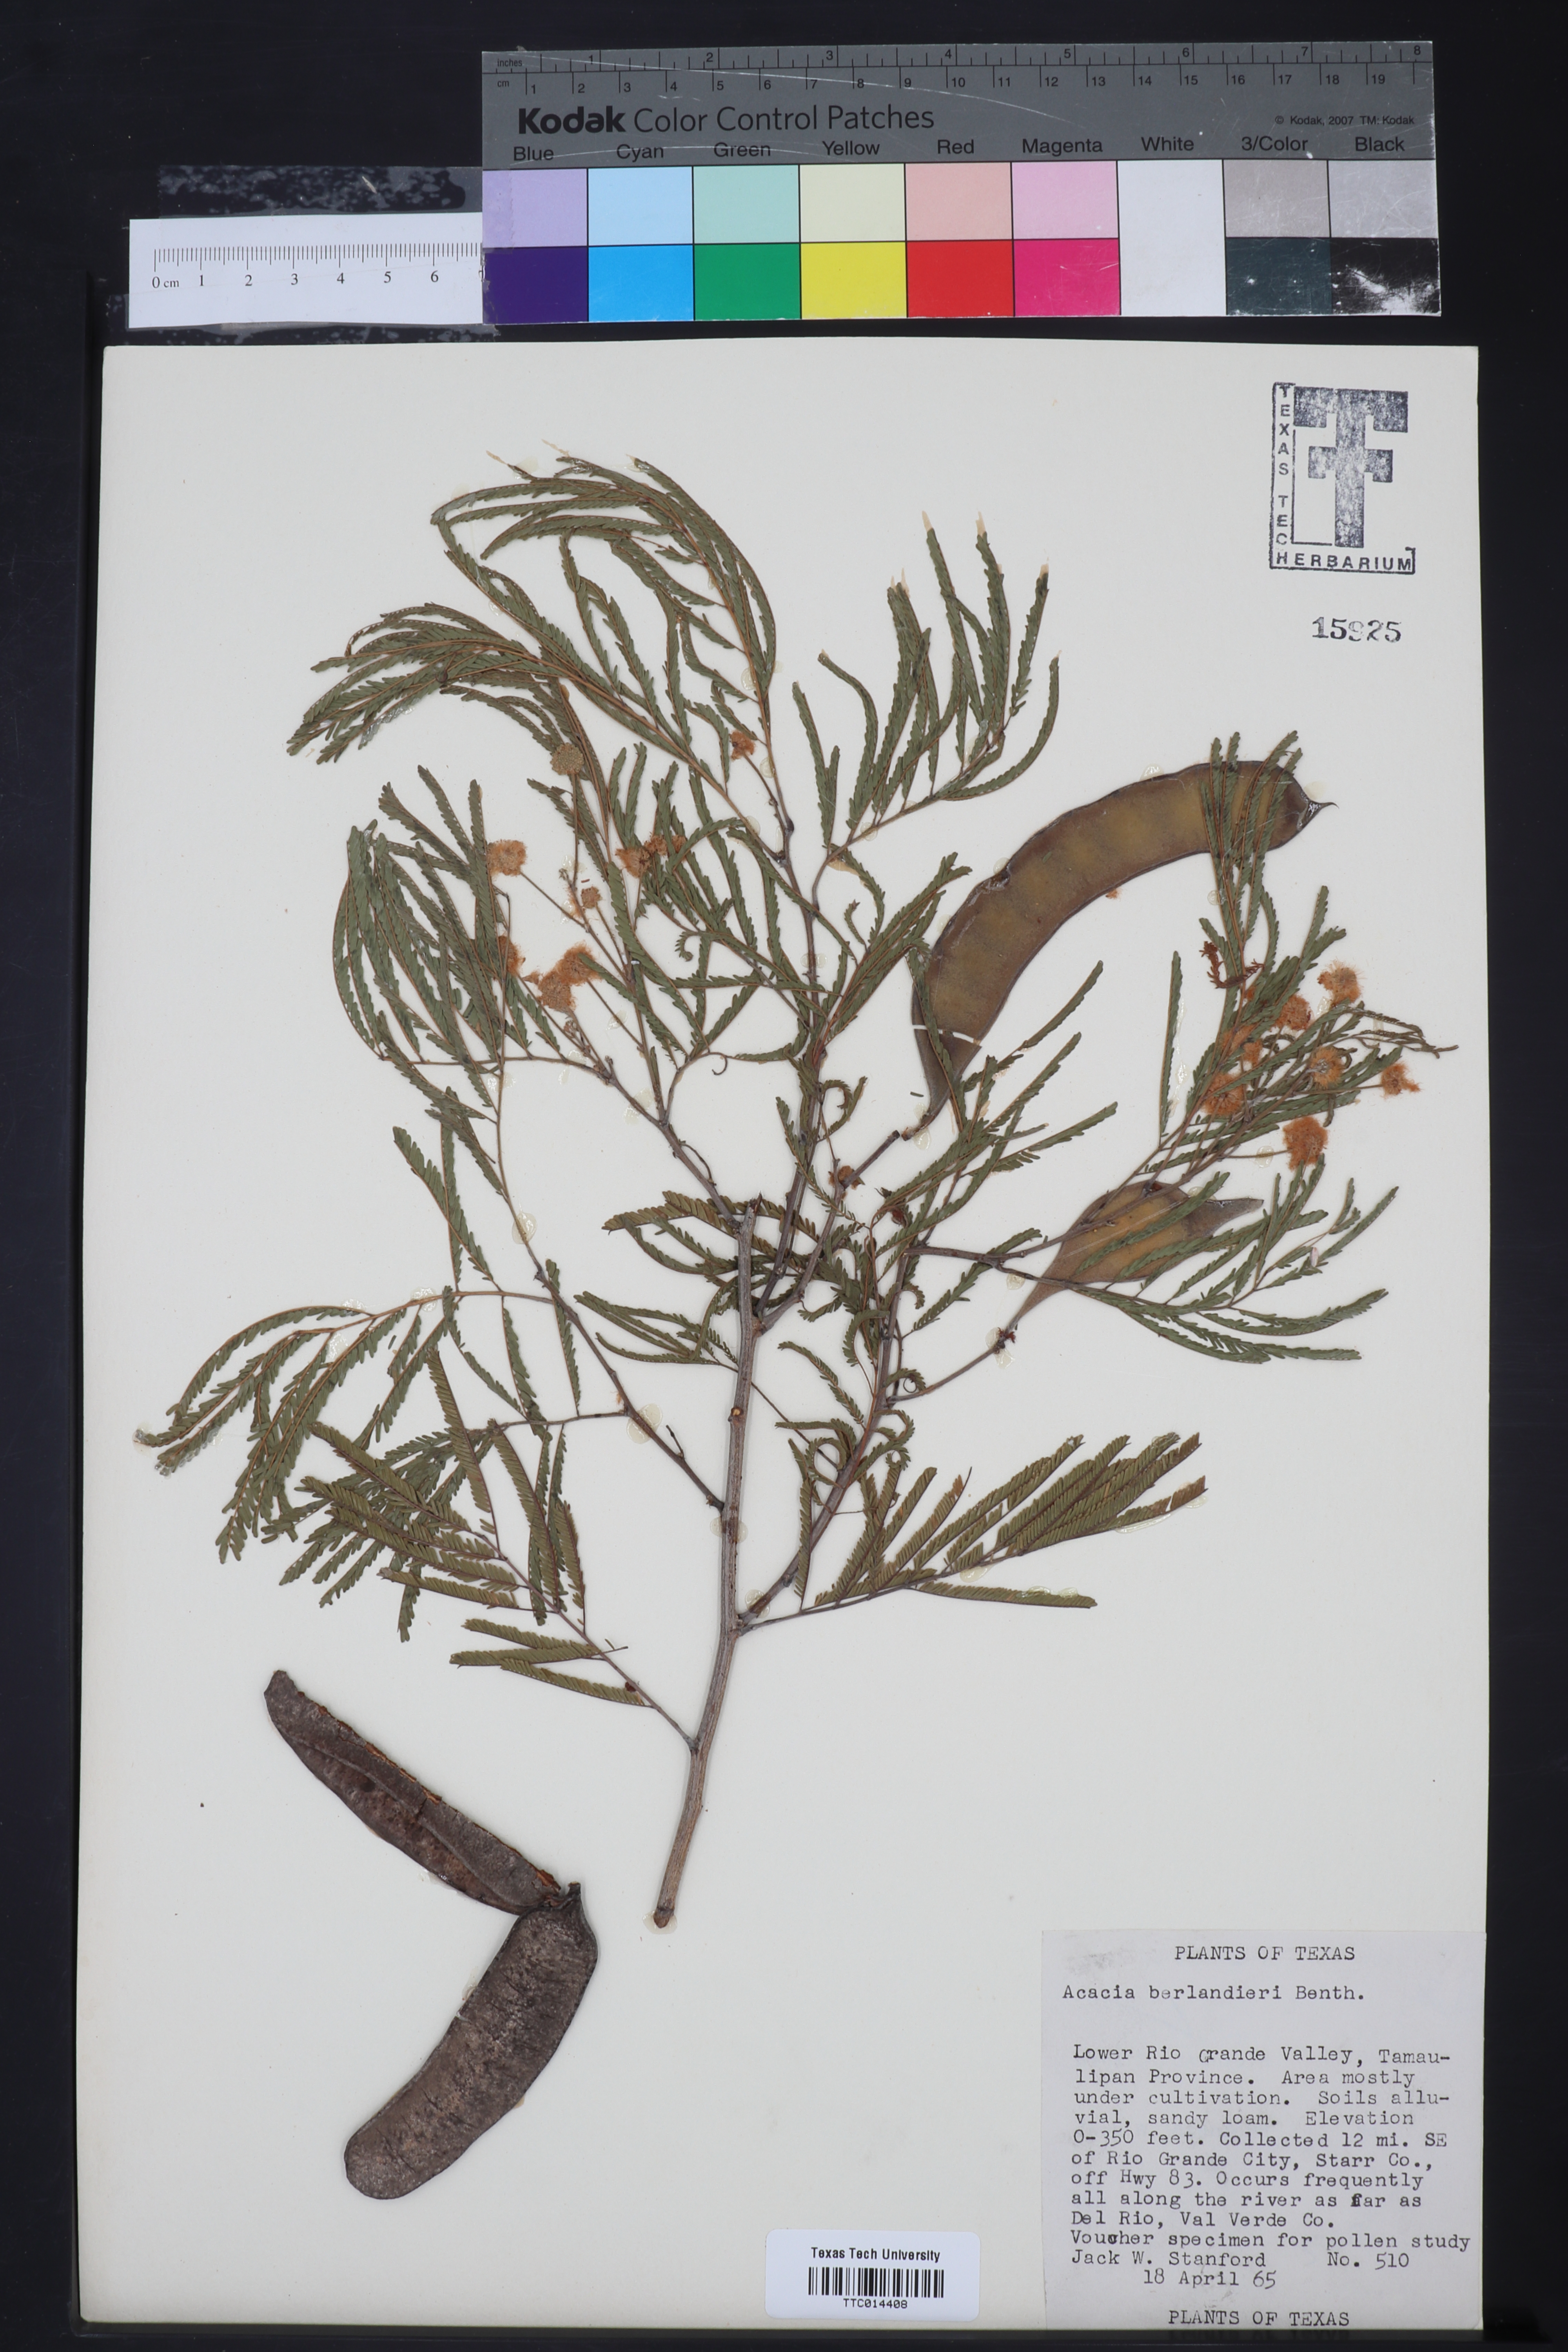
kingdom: Plantae
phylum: Tracheophyta
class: Magnoliopsida
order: Fabales
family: Fabaceae
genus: Senegalia
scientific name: Senegalia berlandieri
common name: Berlandier acacia
